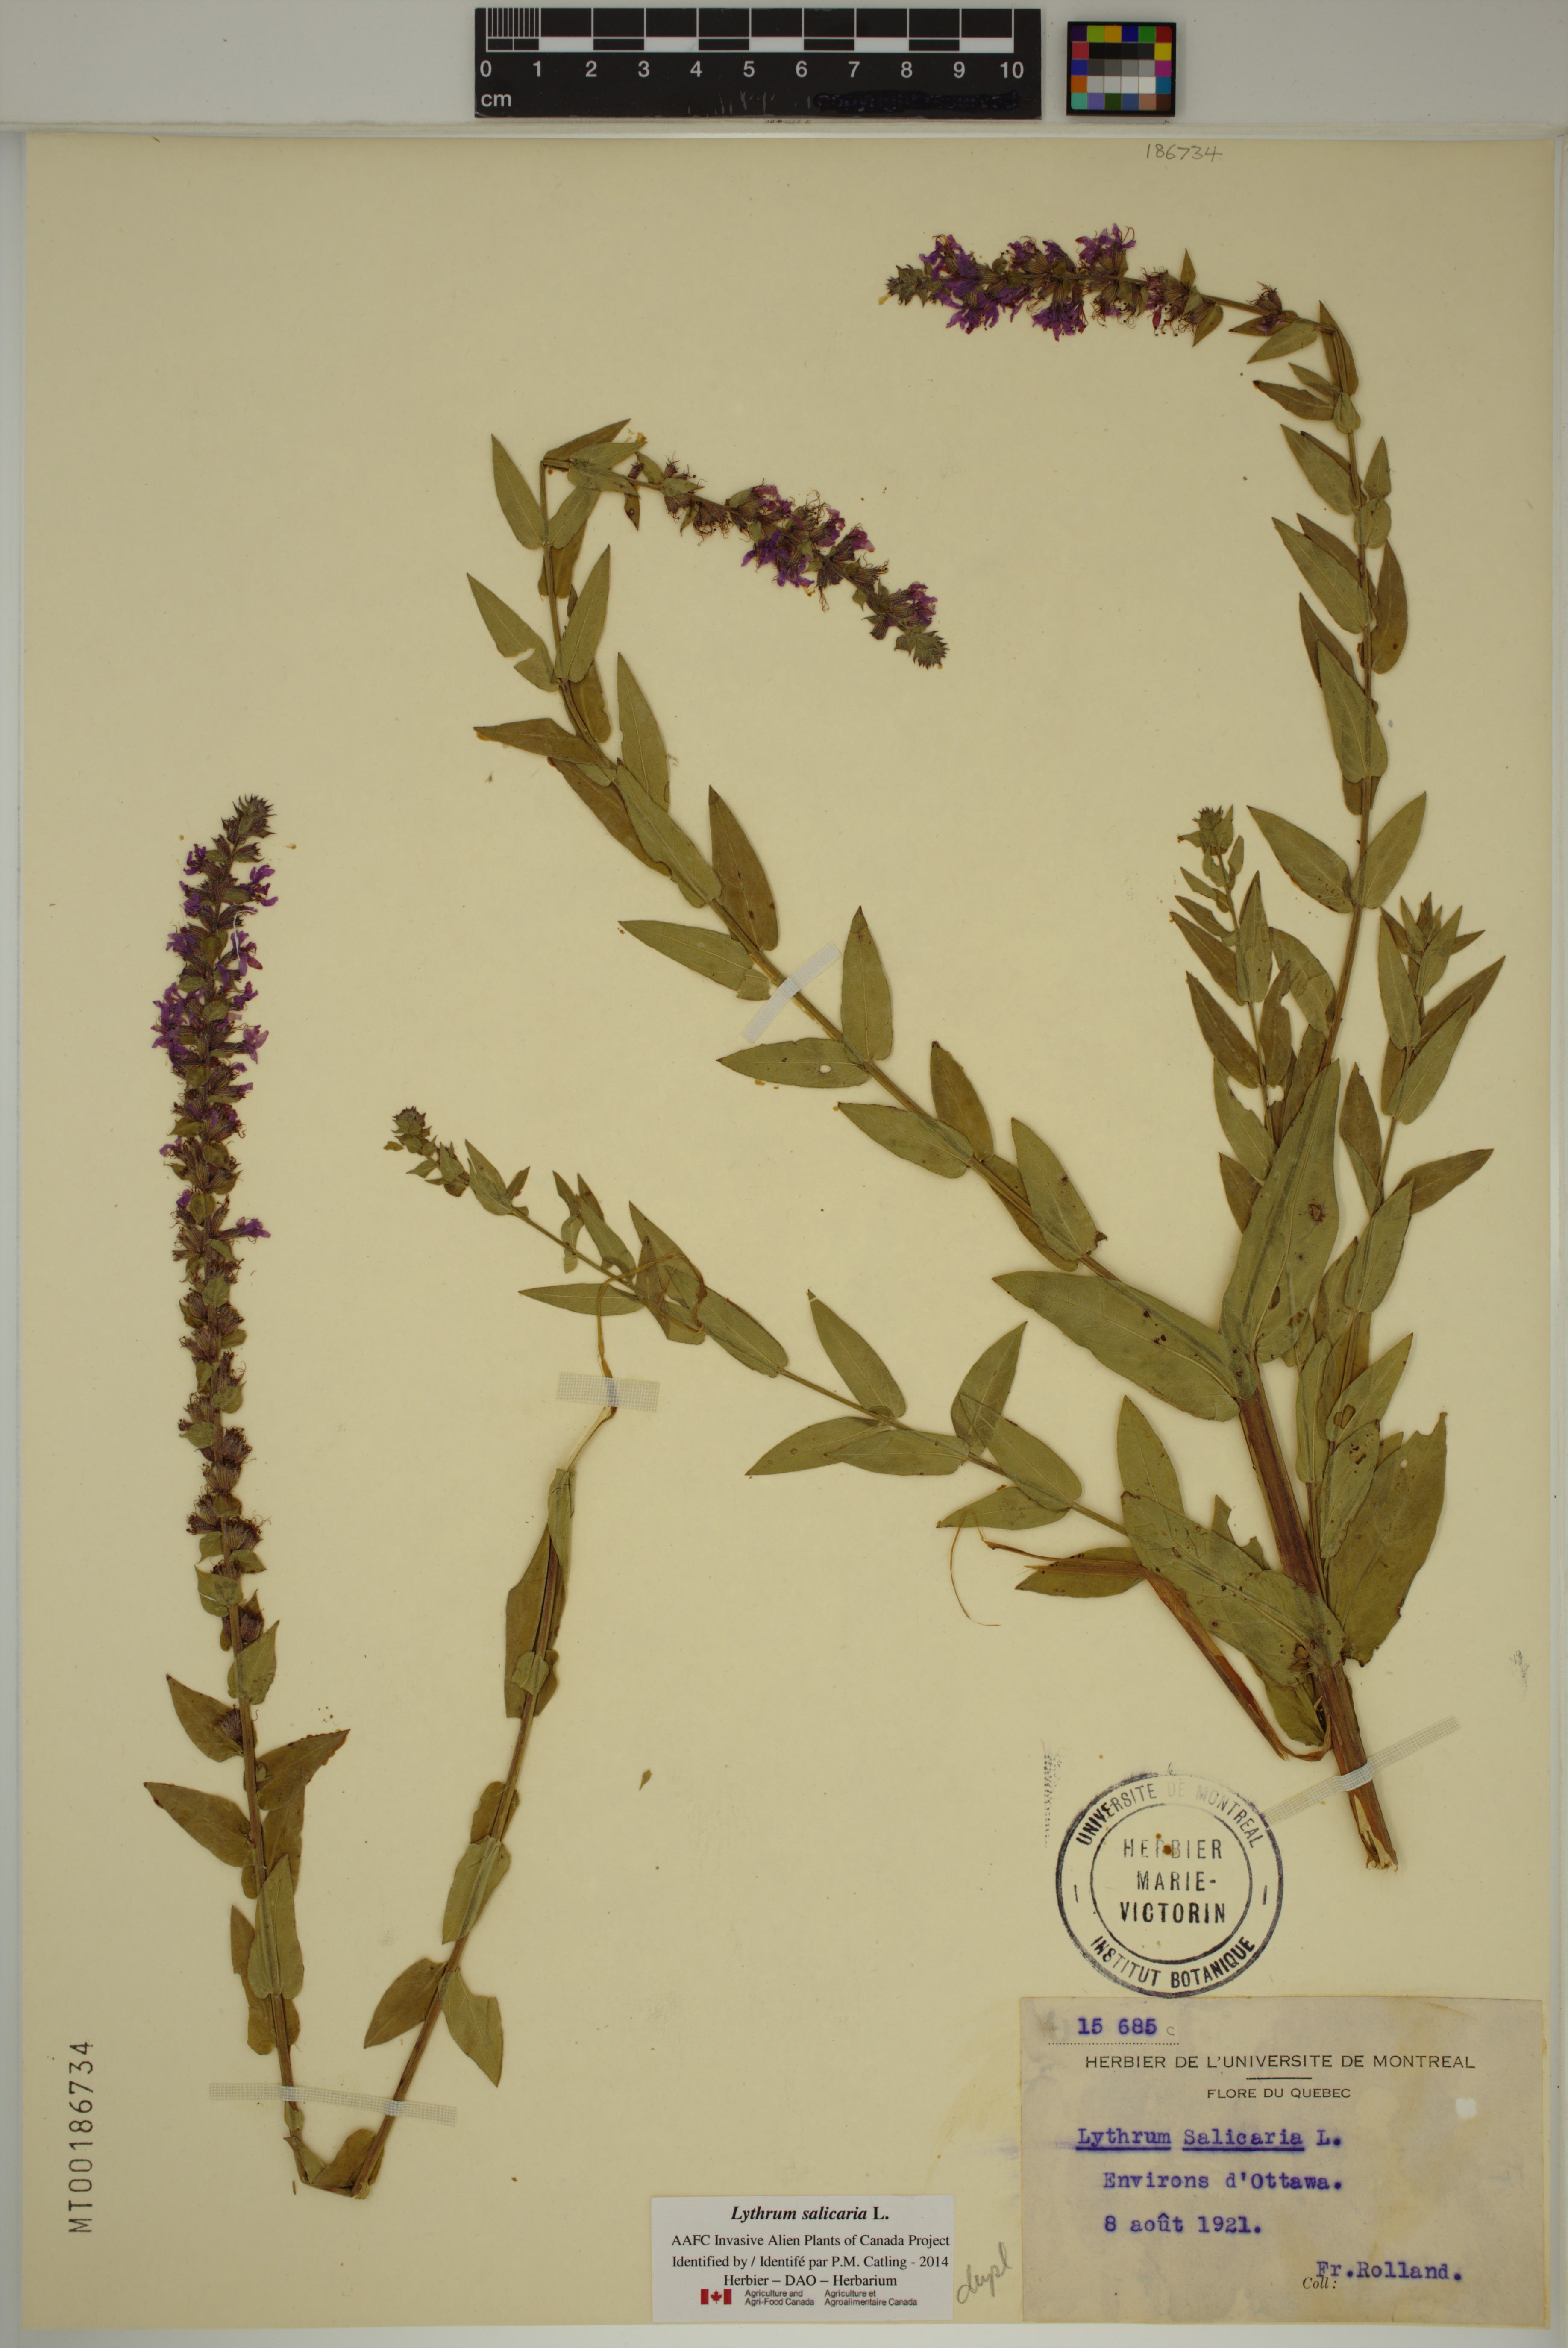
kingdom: Plantae
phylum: Tracheophyta
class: Magnoliopsida
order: Myrtales
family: Lythraceae
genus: Lythrum
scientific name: Lythrum salicaria
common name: Purple loosestrife
